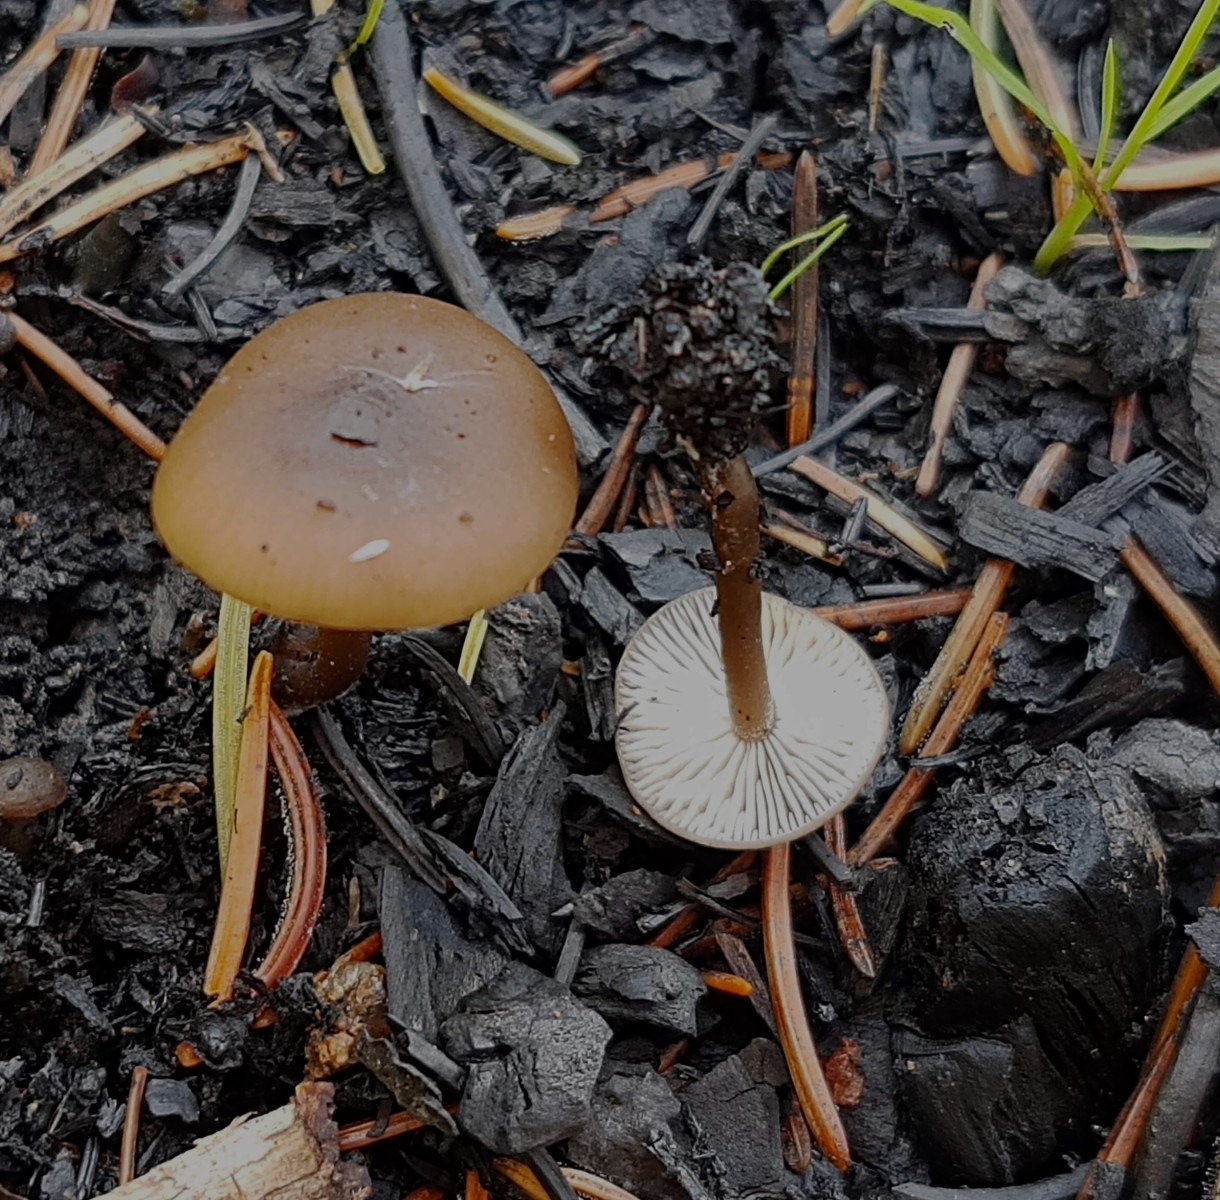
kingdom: Fungi
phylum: Basidiomycota
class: Agaricomycetes
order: Agaricales
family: Lyophyllaceae
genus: Tephrocybe
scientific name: Tephrocybe anthracophila
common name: svedje-gråblad
